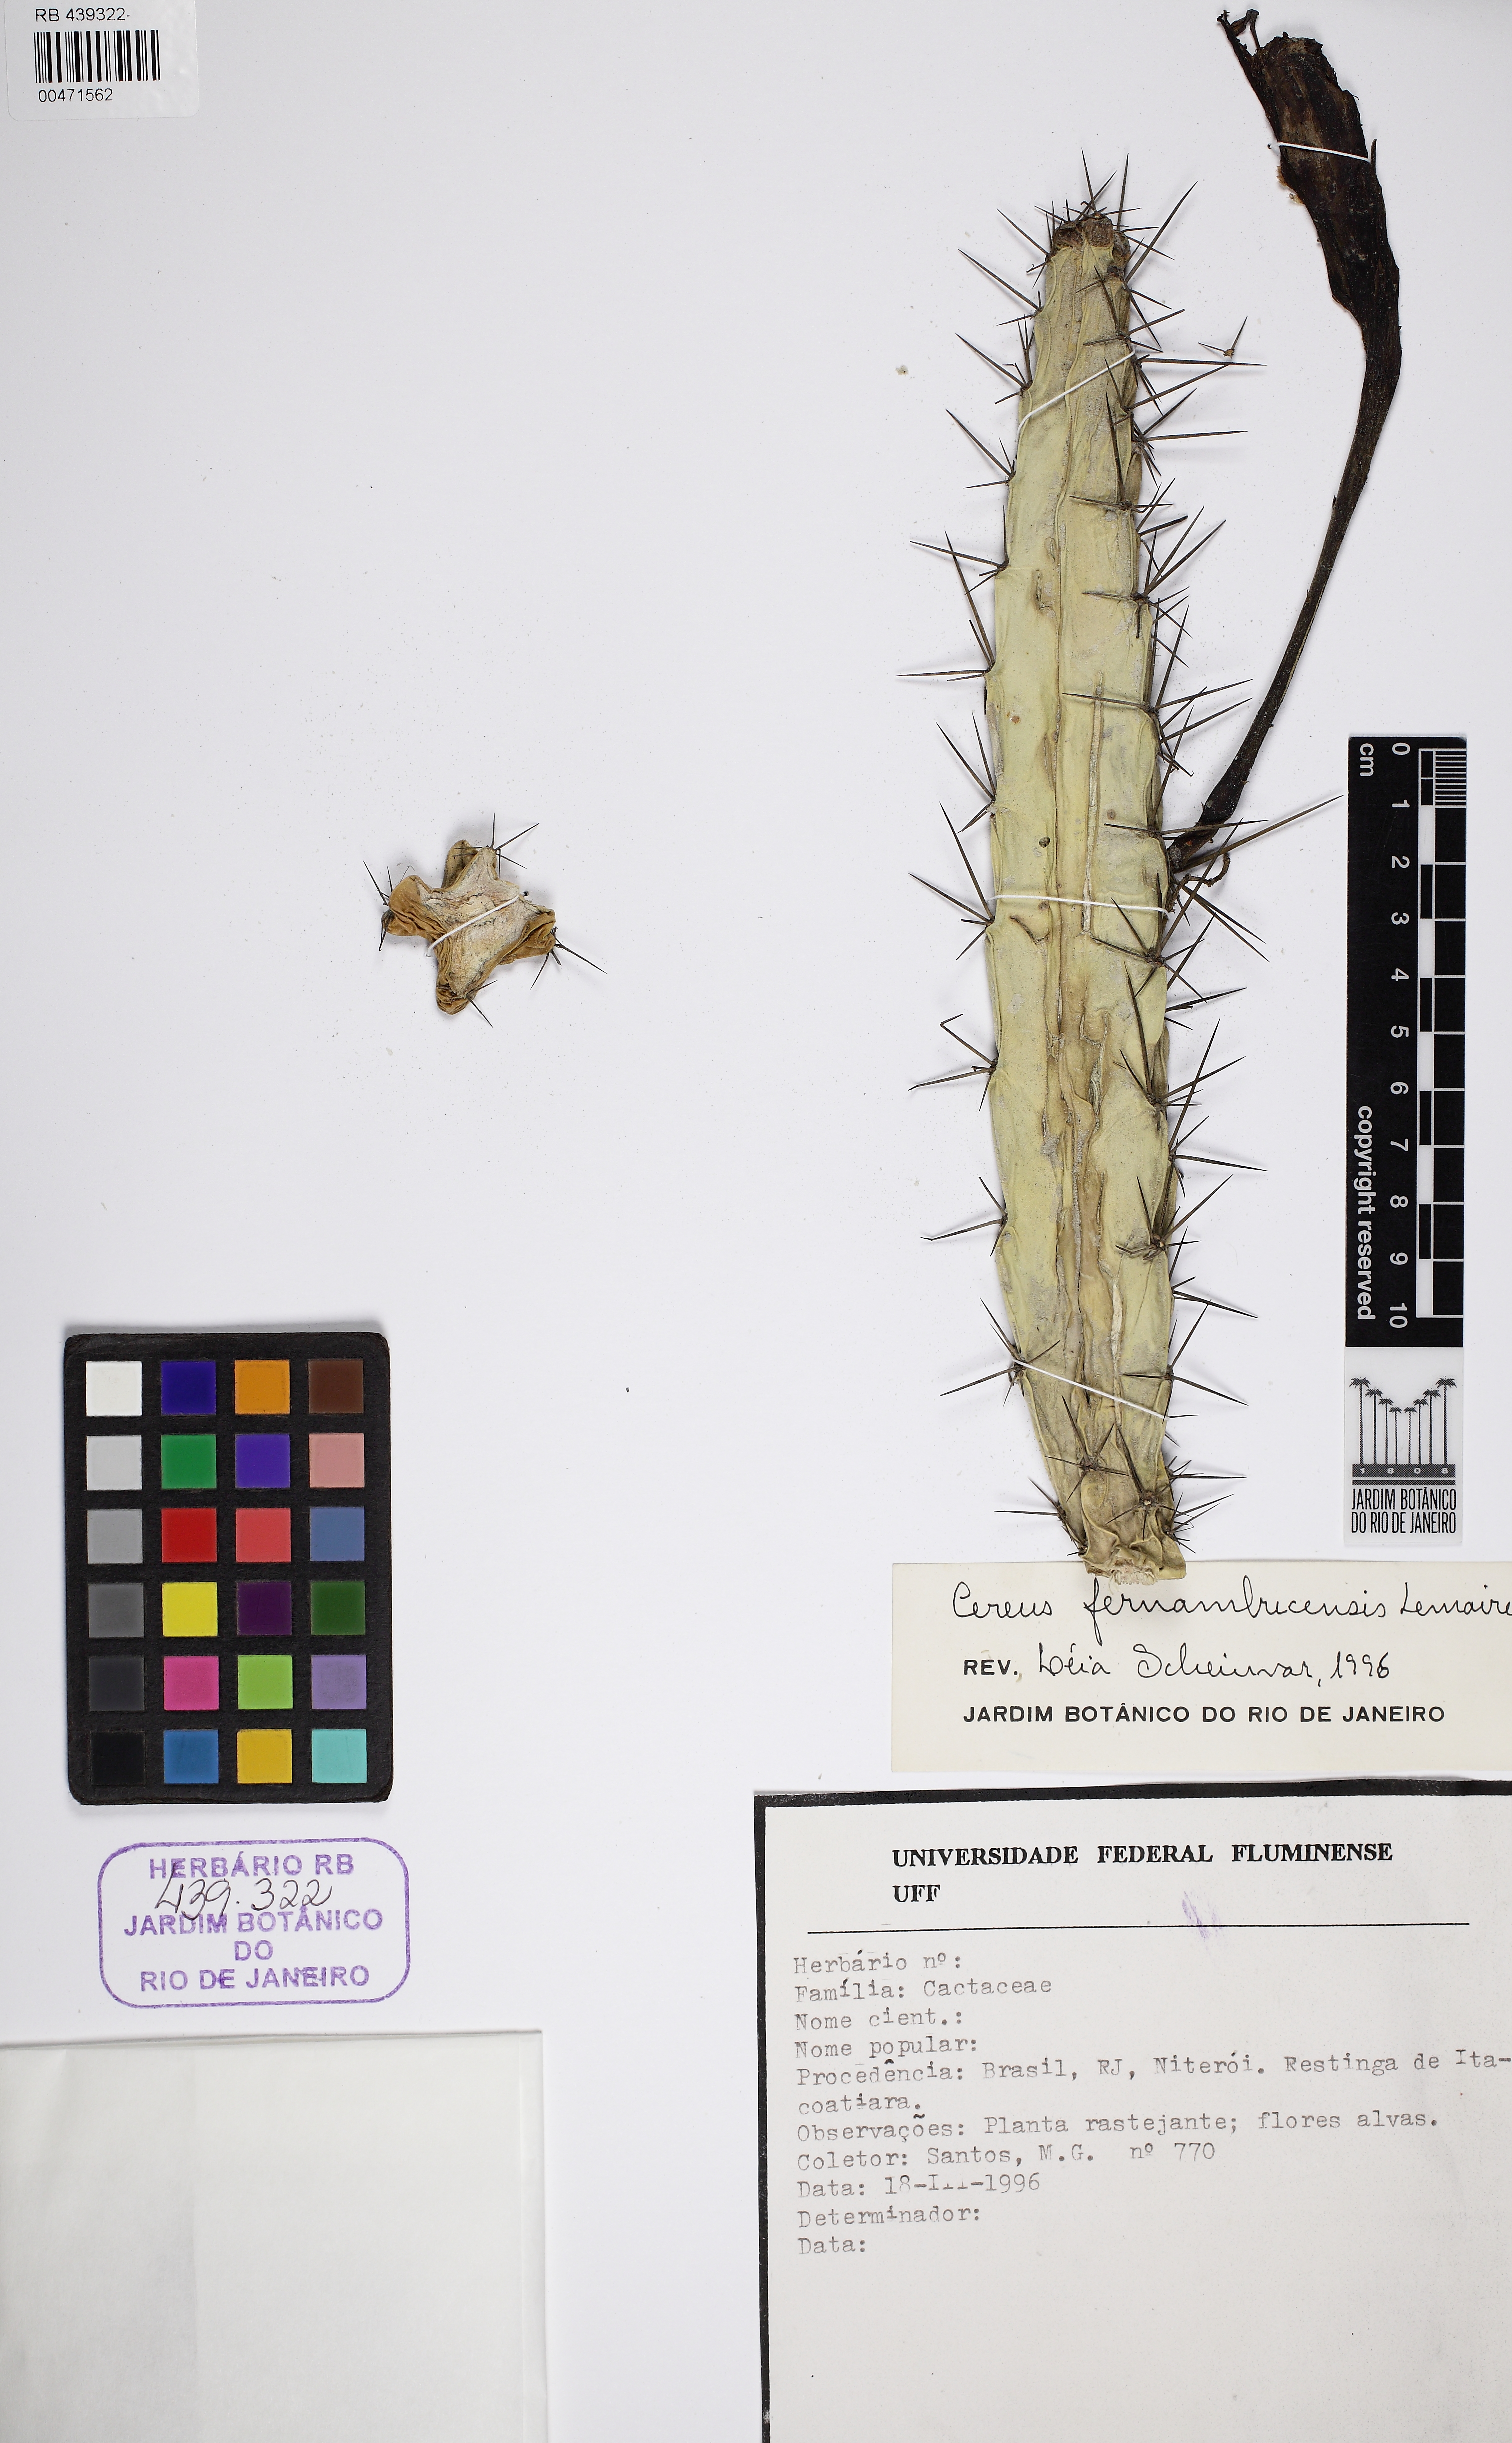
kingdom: Plantae
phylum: Tracheophyta
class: Magnoliopsida
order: Caryophyllales
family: Cactaceae
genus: Cereus
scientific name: Cereus fernambucensis
